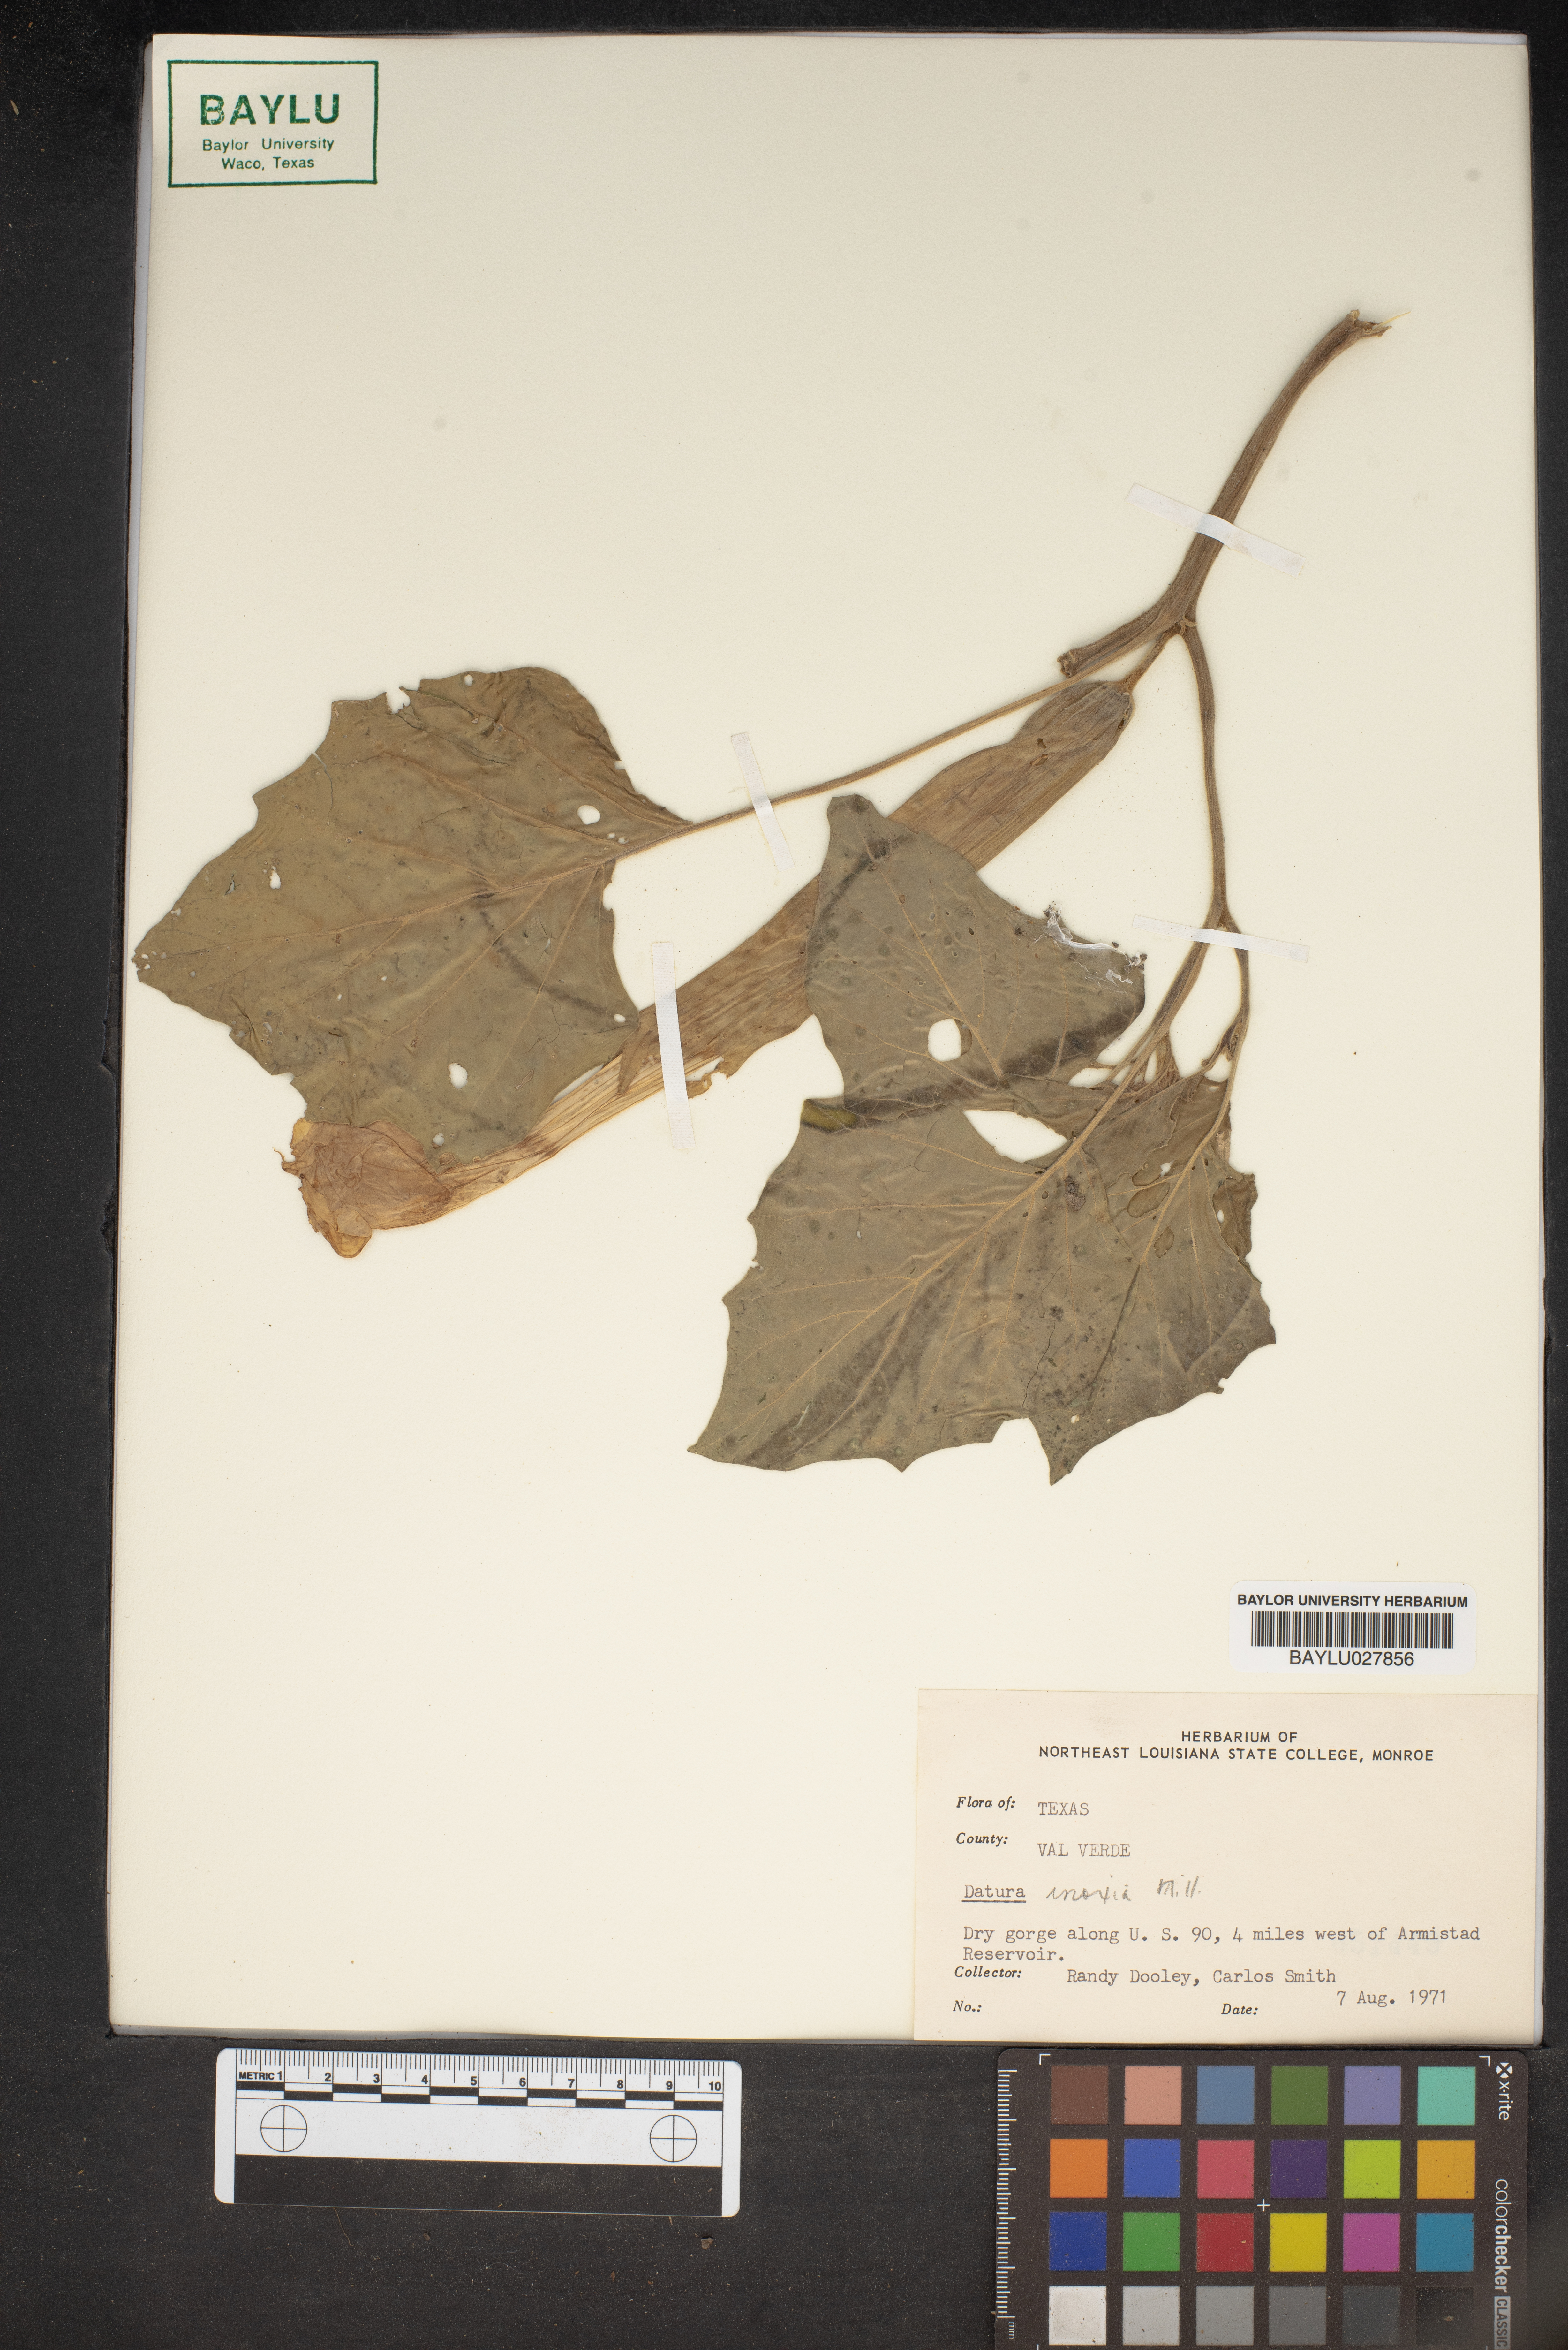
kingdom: Plantae
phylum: Tracheophyta
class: Magnoliopsida
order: Solanales
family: Solanaceae
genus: Datura
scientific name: Datura innoxia
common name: Downy thorn-apple
